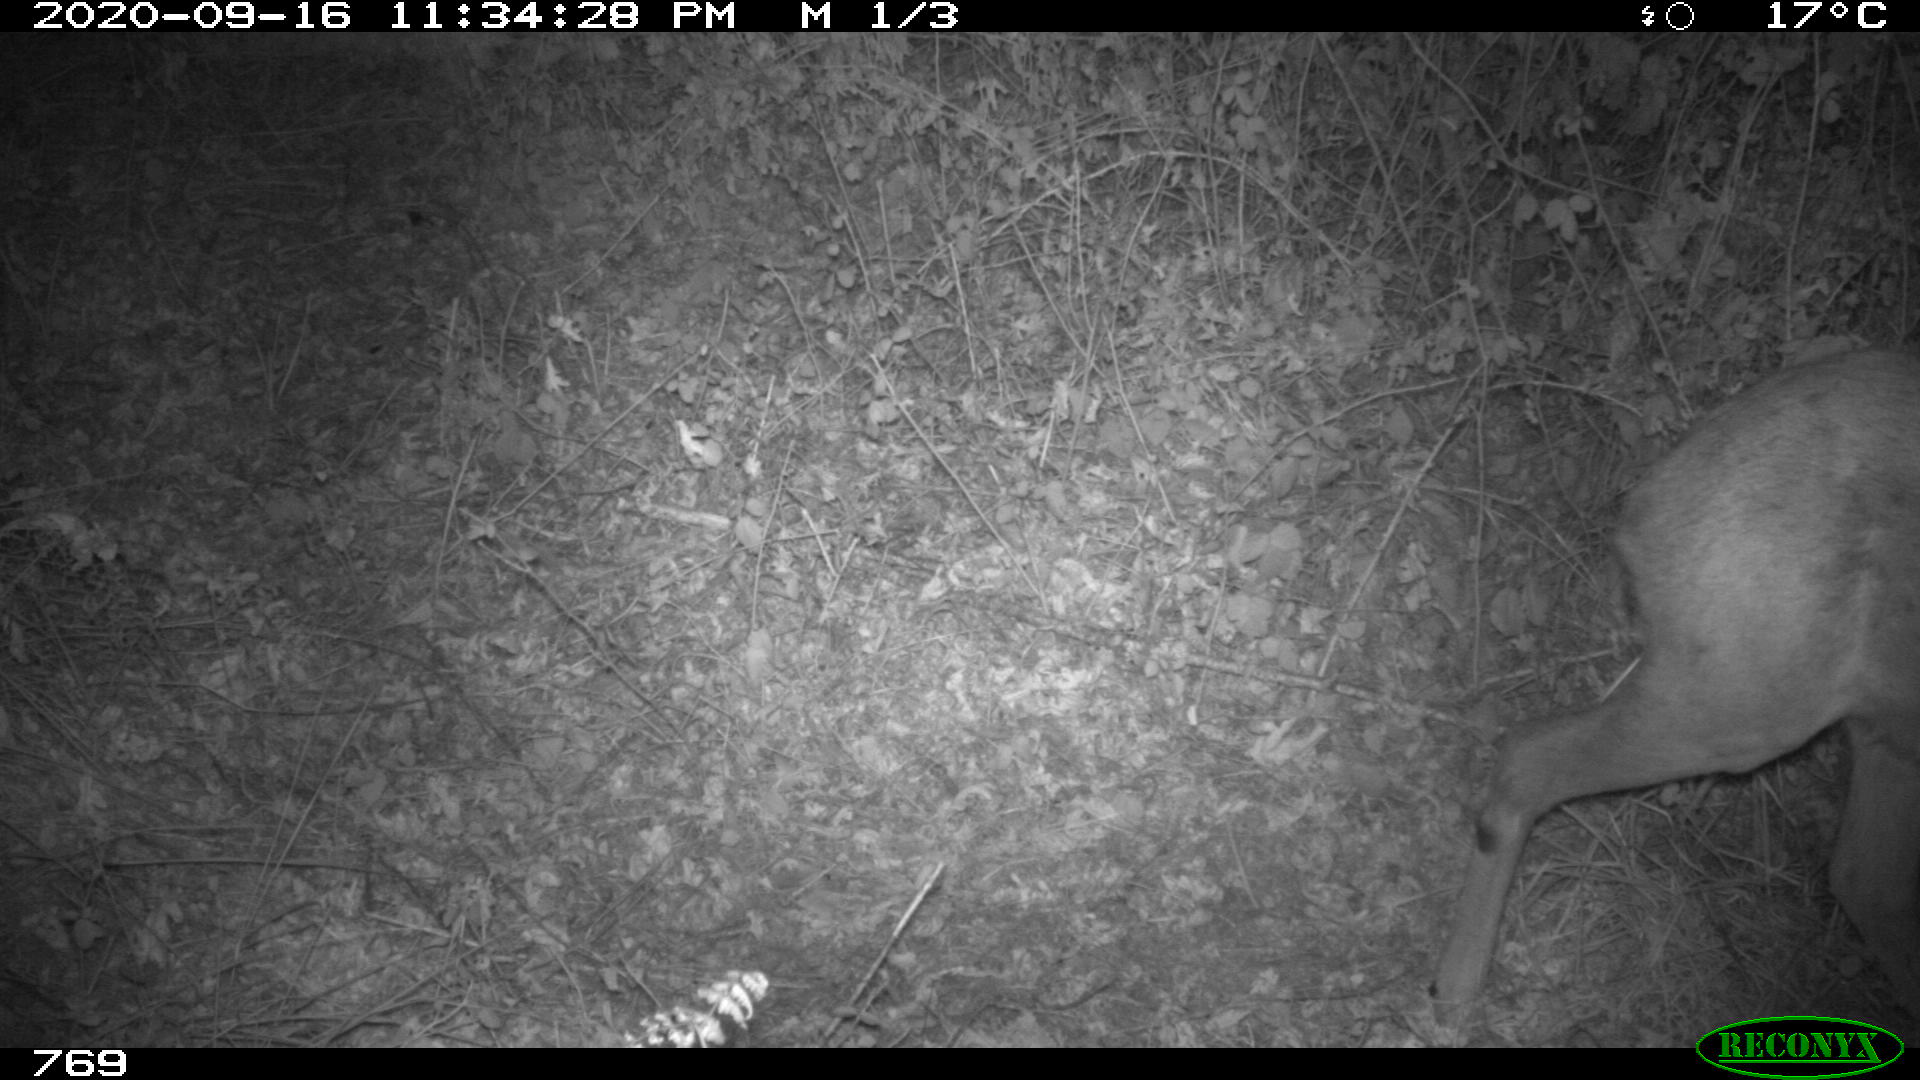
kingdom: Animalia
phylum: Chordata
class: Mammalia
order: Artiodactyla
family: Cervidae
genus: Capreolus
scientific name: Capreolus capreolus
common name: Western roe deer
